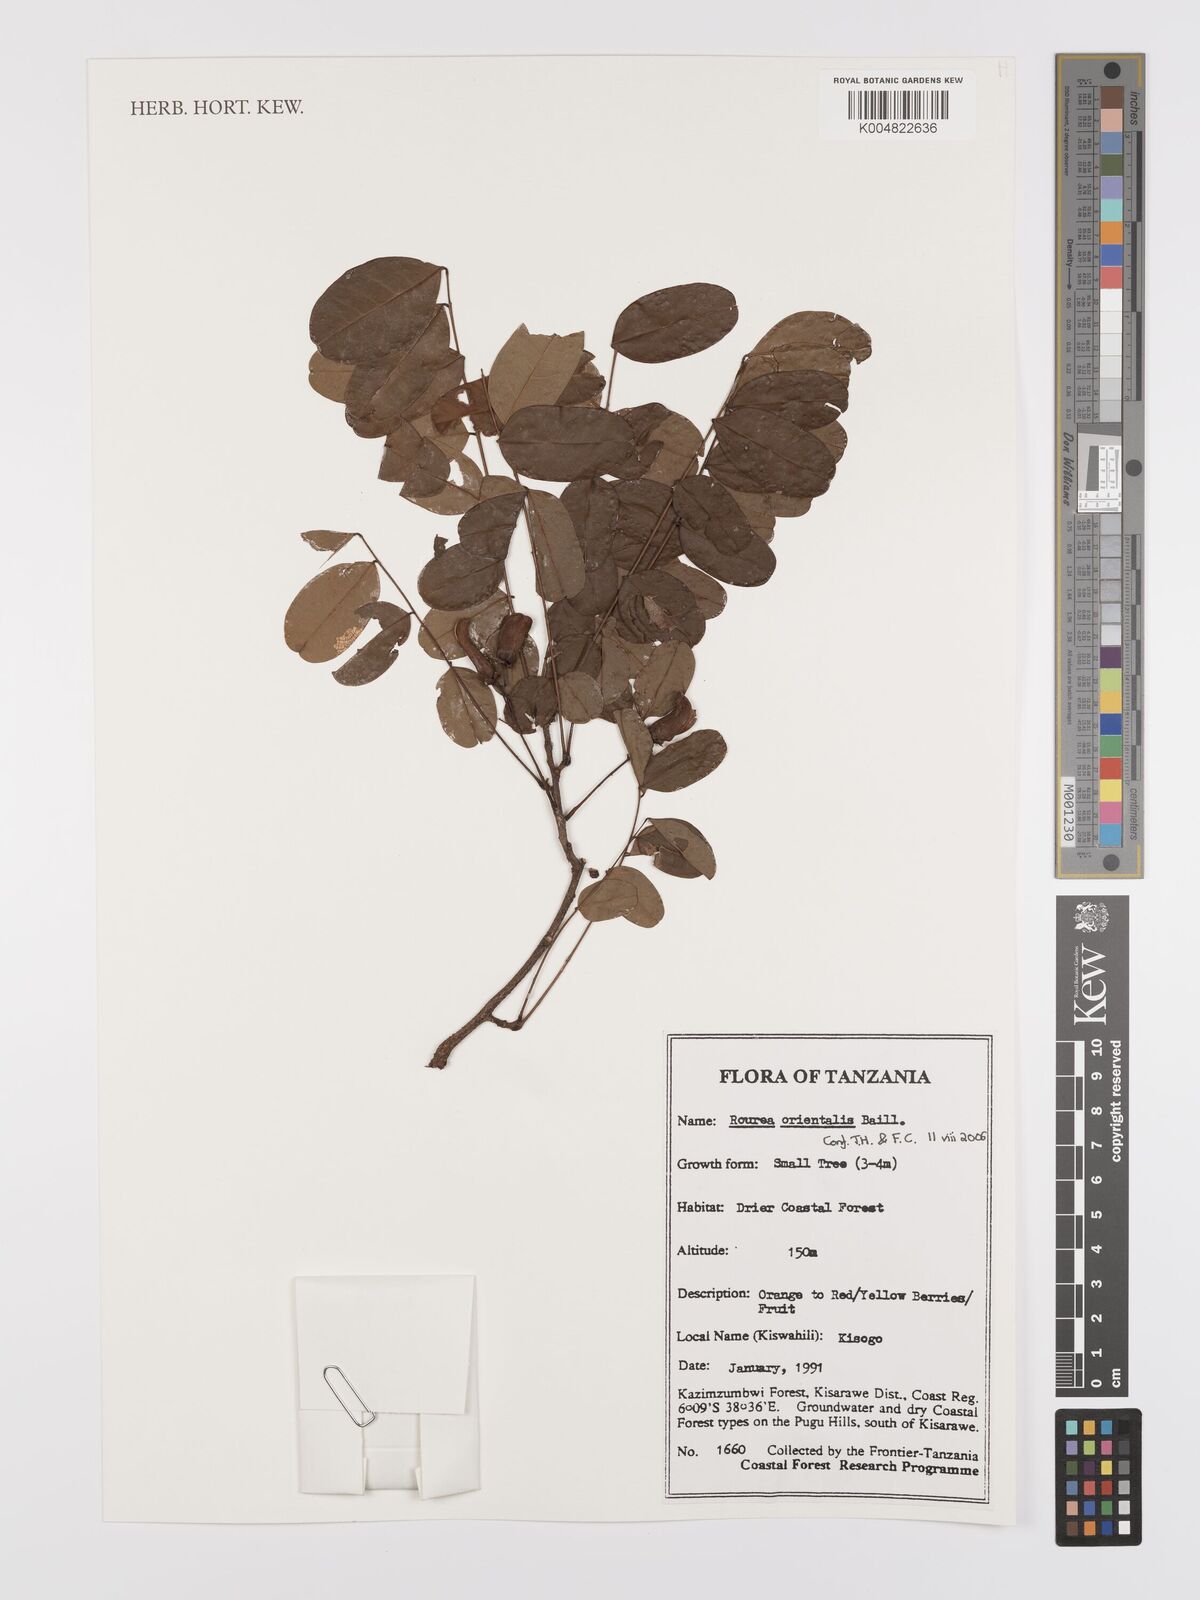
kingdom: Plantae
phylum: Tracheophyta
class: Magnoliopsida
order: Oxalidales
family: Connaraceae
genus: Rourea
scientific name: Rourea orientalis
